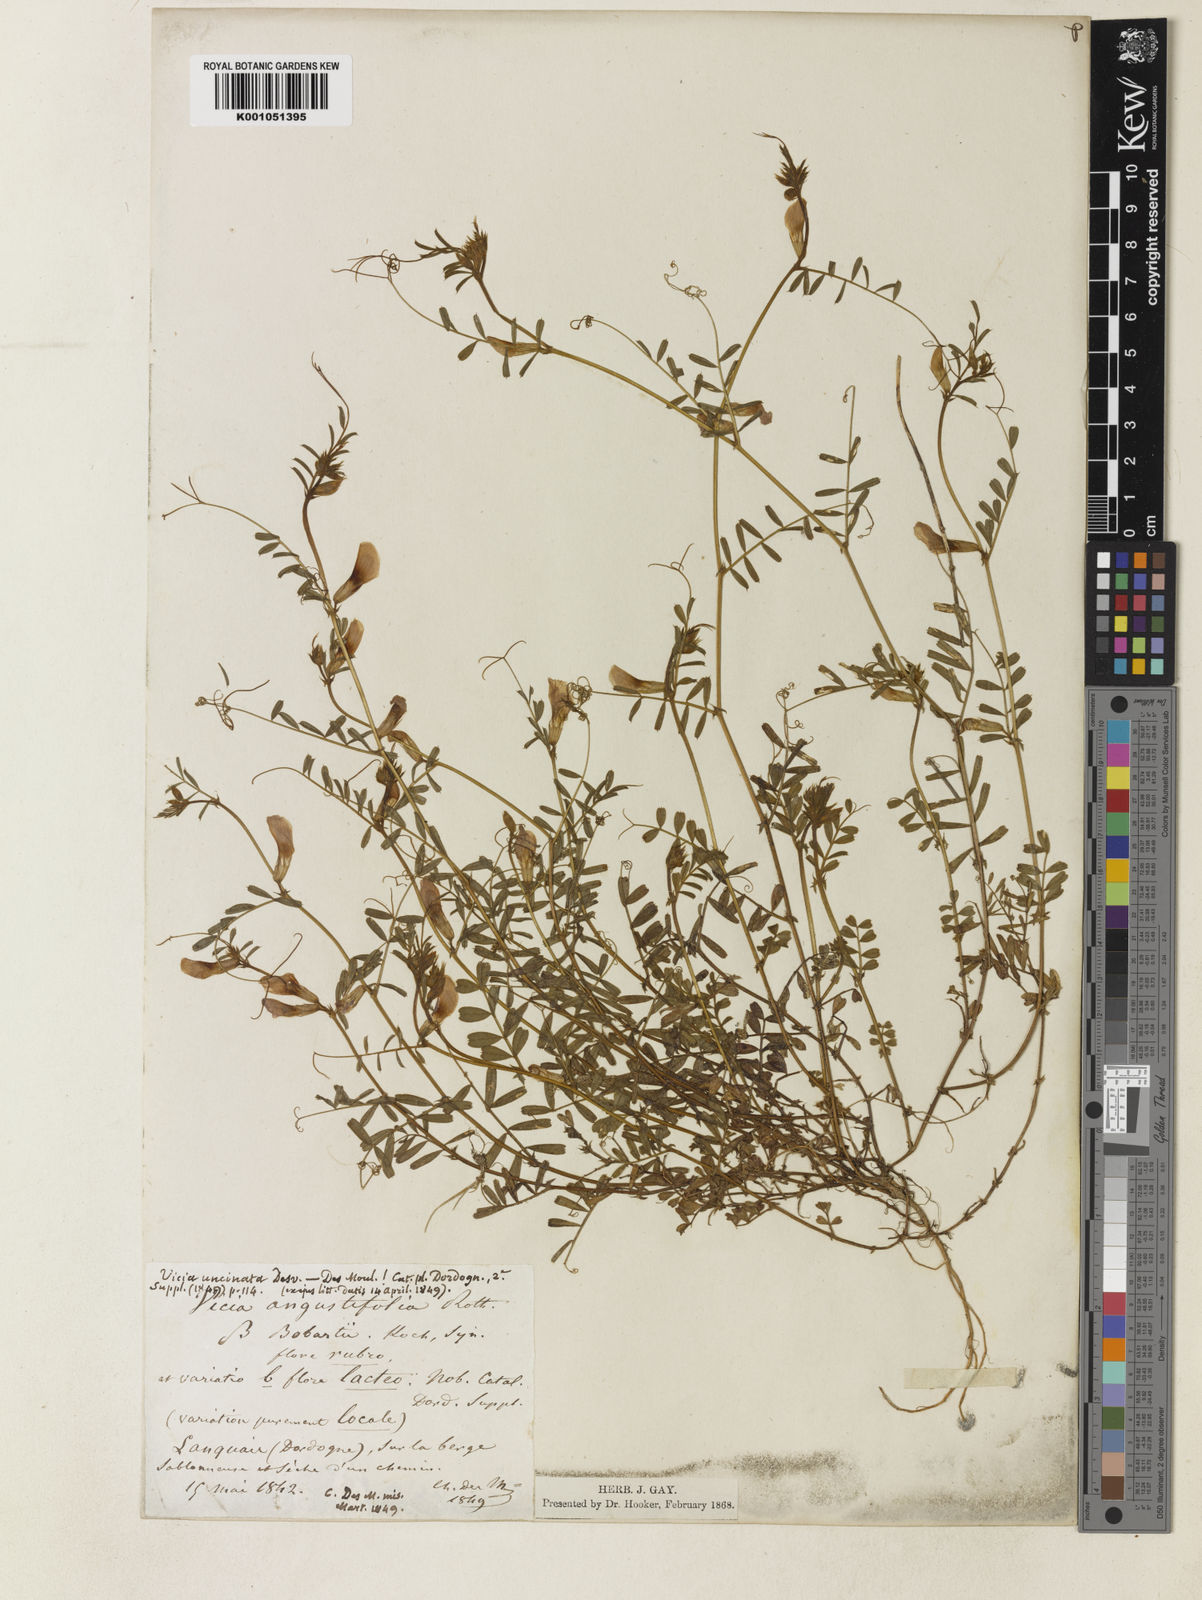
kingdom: Plantae
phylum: Tracheophyta
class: Magnoliopsida
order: Fabales
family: Fabaceae
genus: Vicia
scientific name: Vicia sativa
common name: Garden vetch
